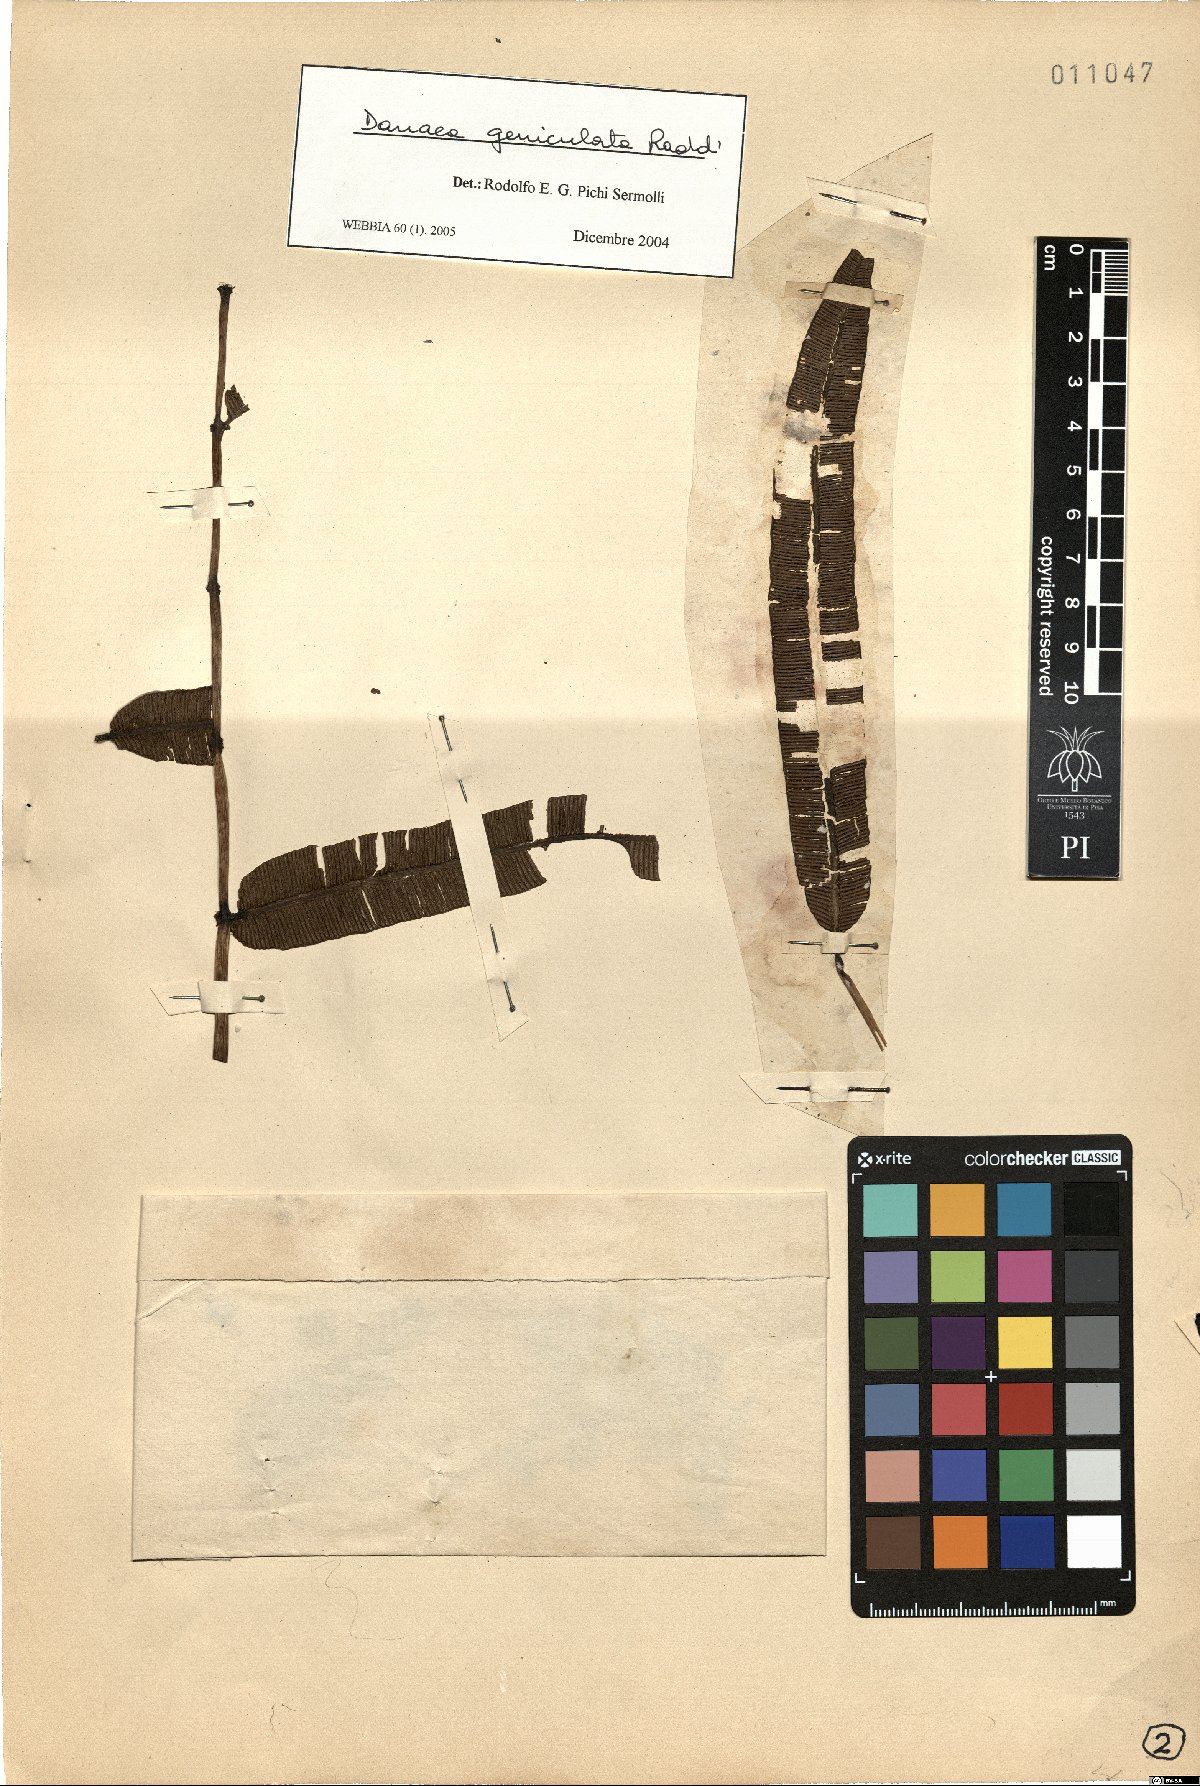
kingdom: Plantae
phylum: Tracheophyta
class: Polypodiopsida
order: Marattiales
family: Marattiaceae
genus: Danaea
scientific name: Danaea geniculata
